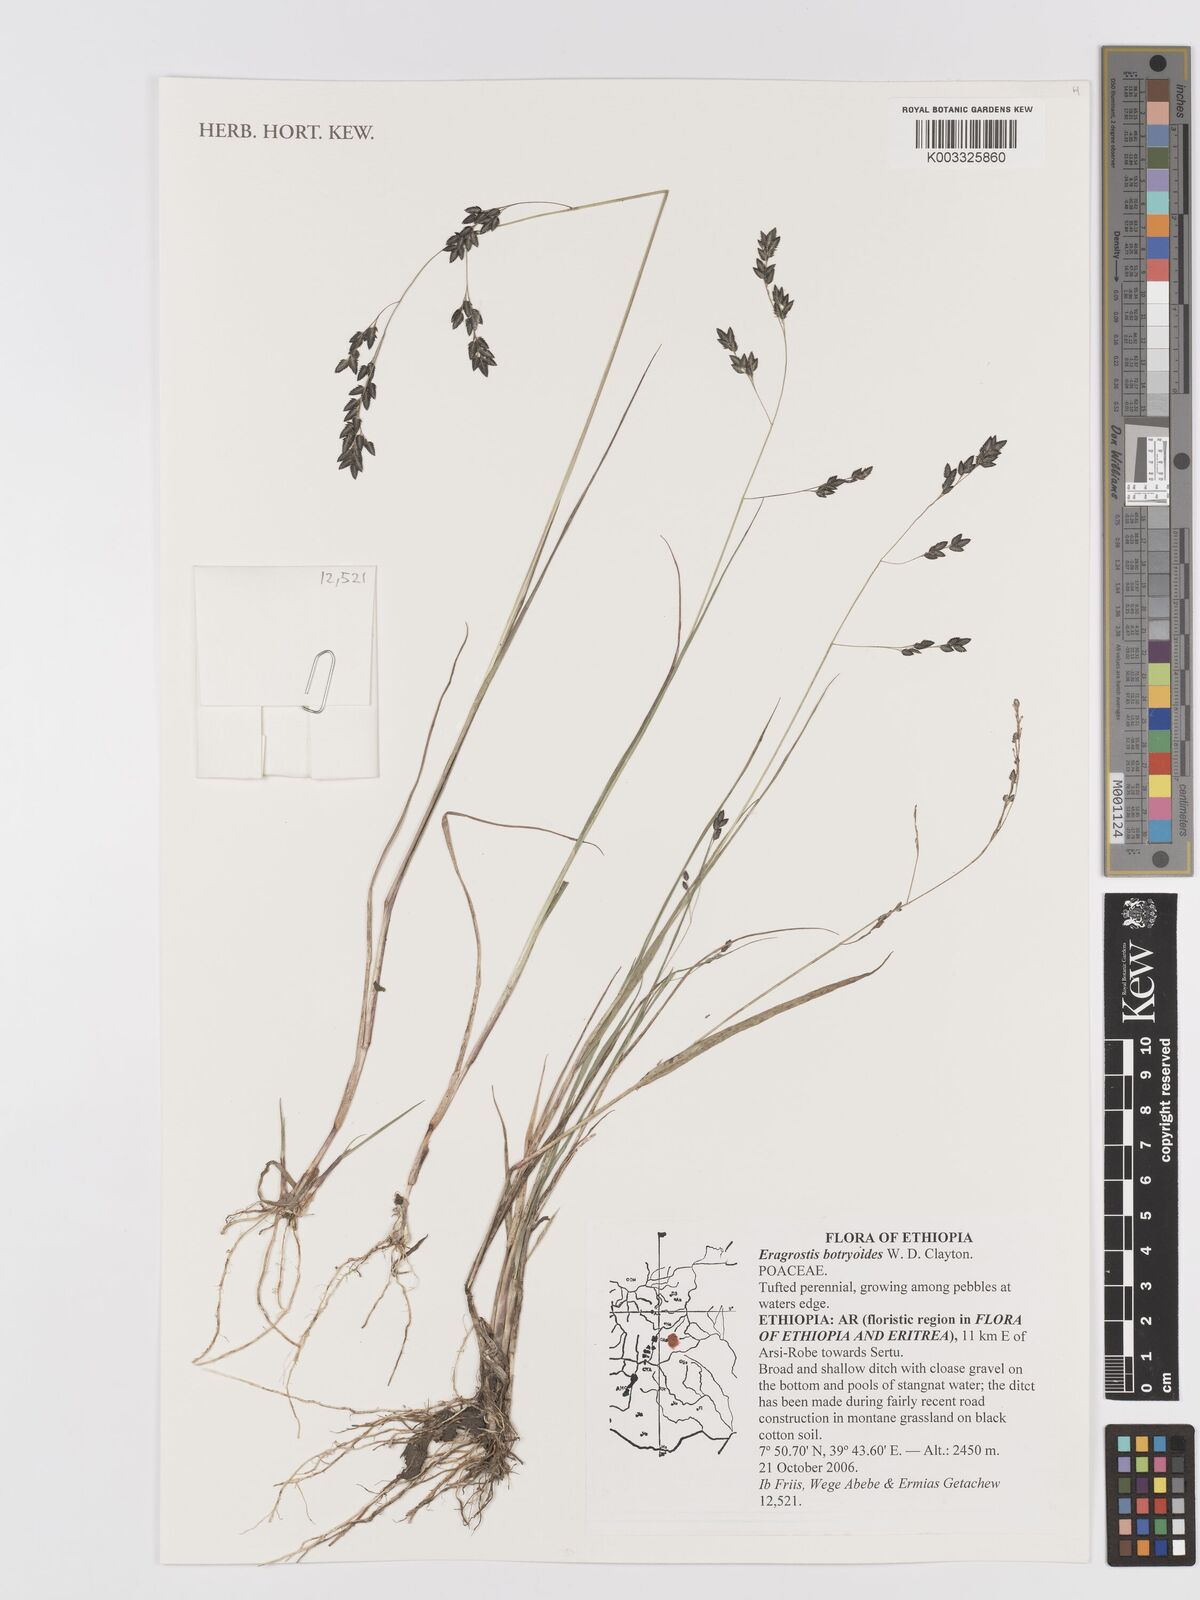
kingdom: Plantae
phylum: Tracheophyta
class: Liliopsida
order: Poales
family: Poaceae
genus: Eragrostis
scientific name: Eragrostis botryodes
